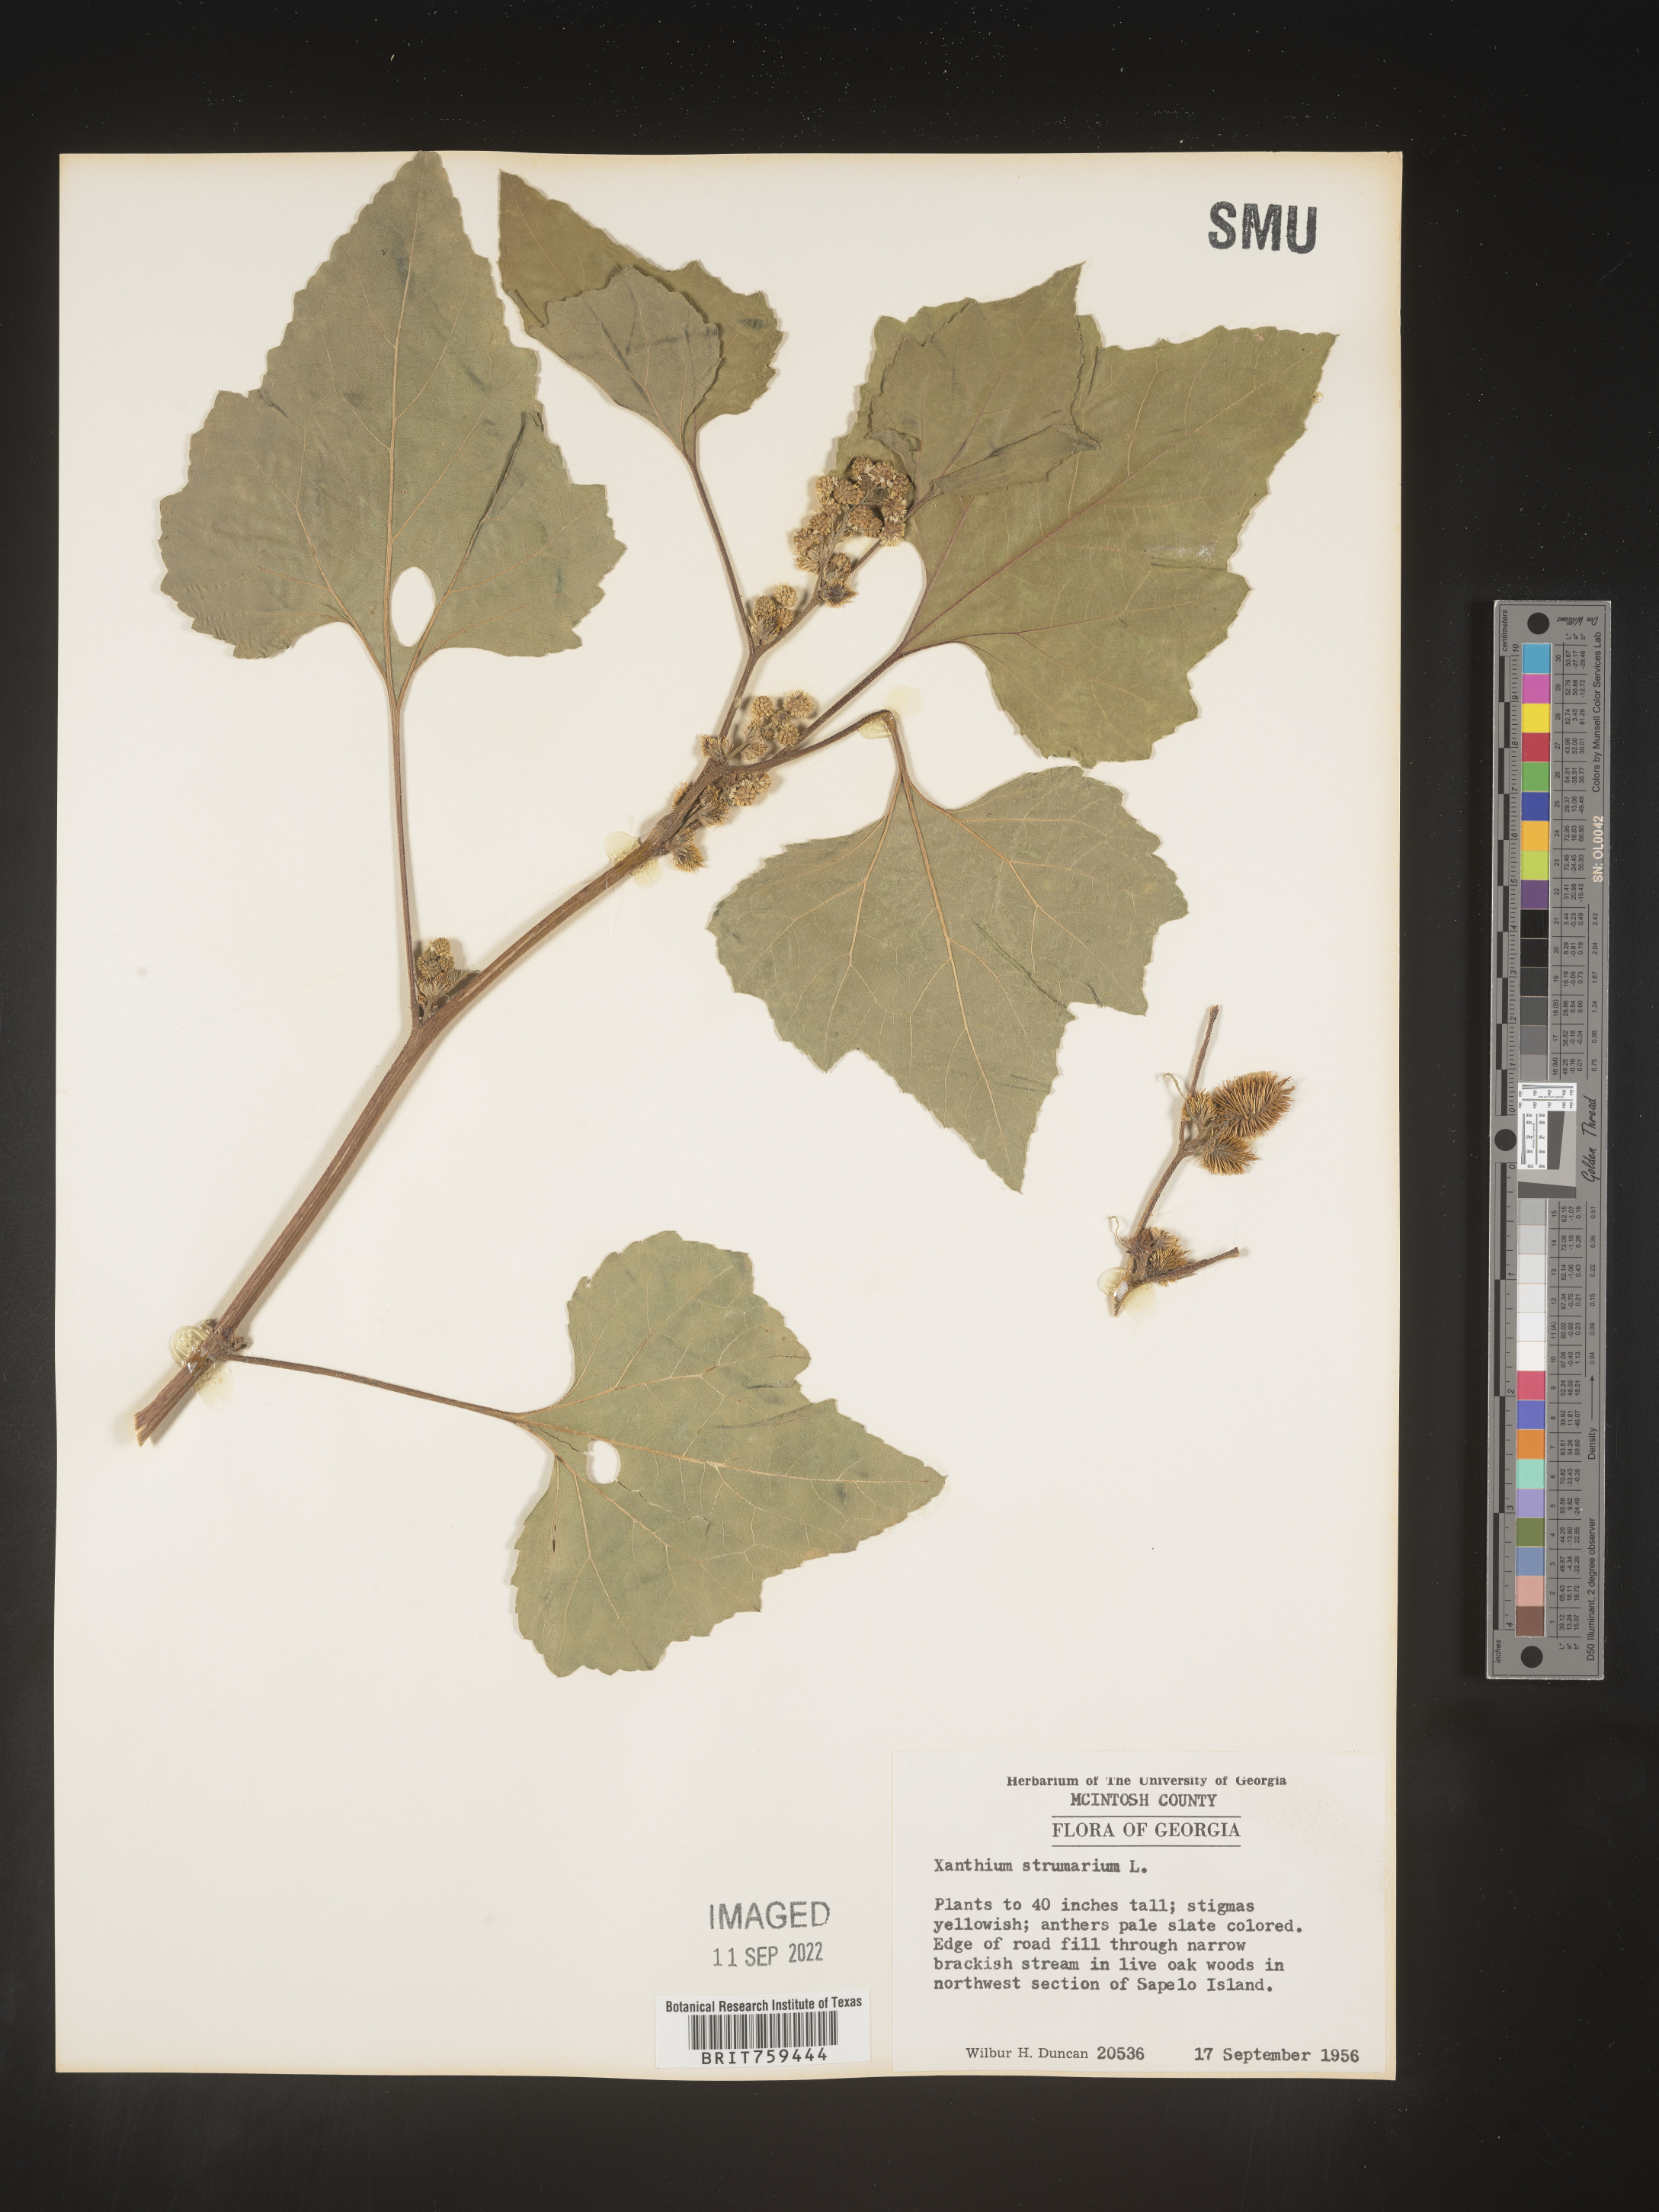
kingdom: Plantae
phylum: Tracheophyta
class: Magnoliopsida
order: Asterales
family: Asteraceae
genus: Xanthium
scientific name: Xanthium strumarium
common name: Rough cocklebur
